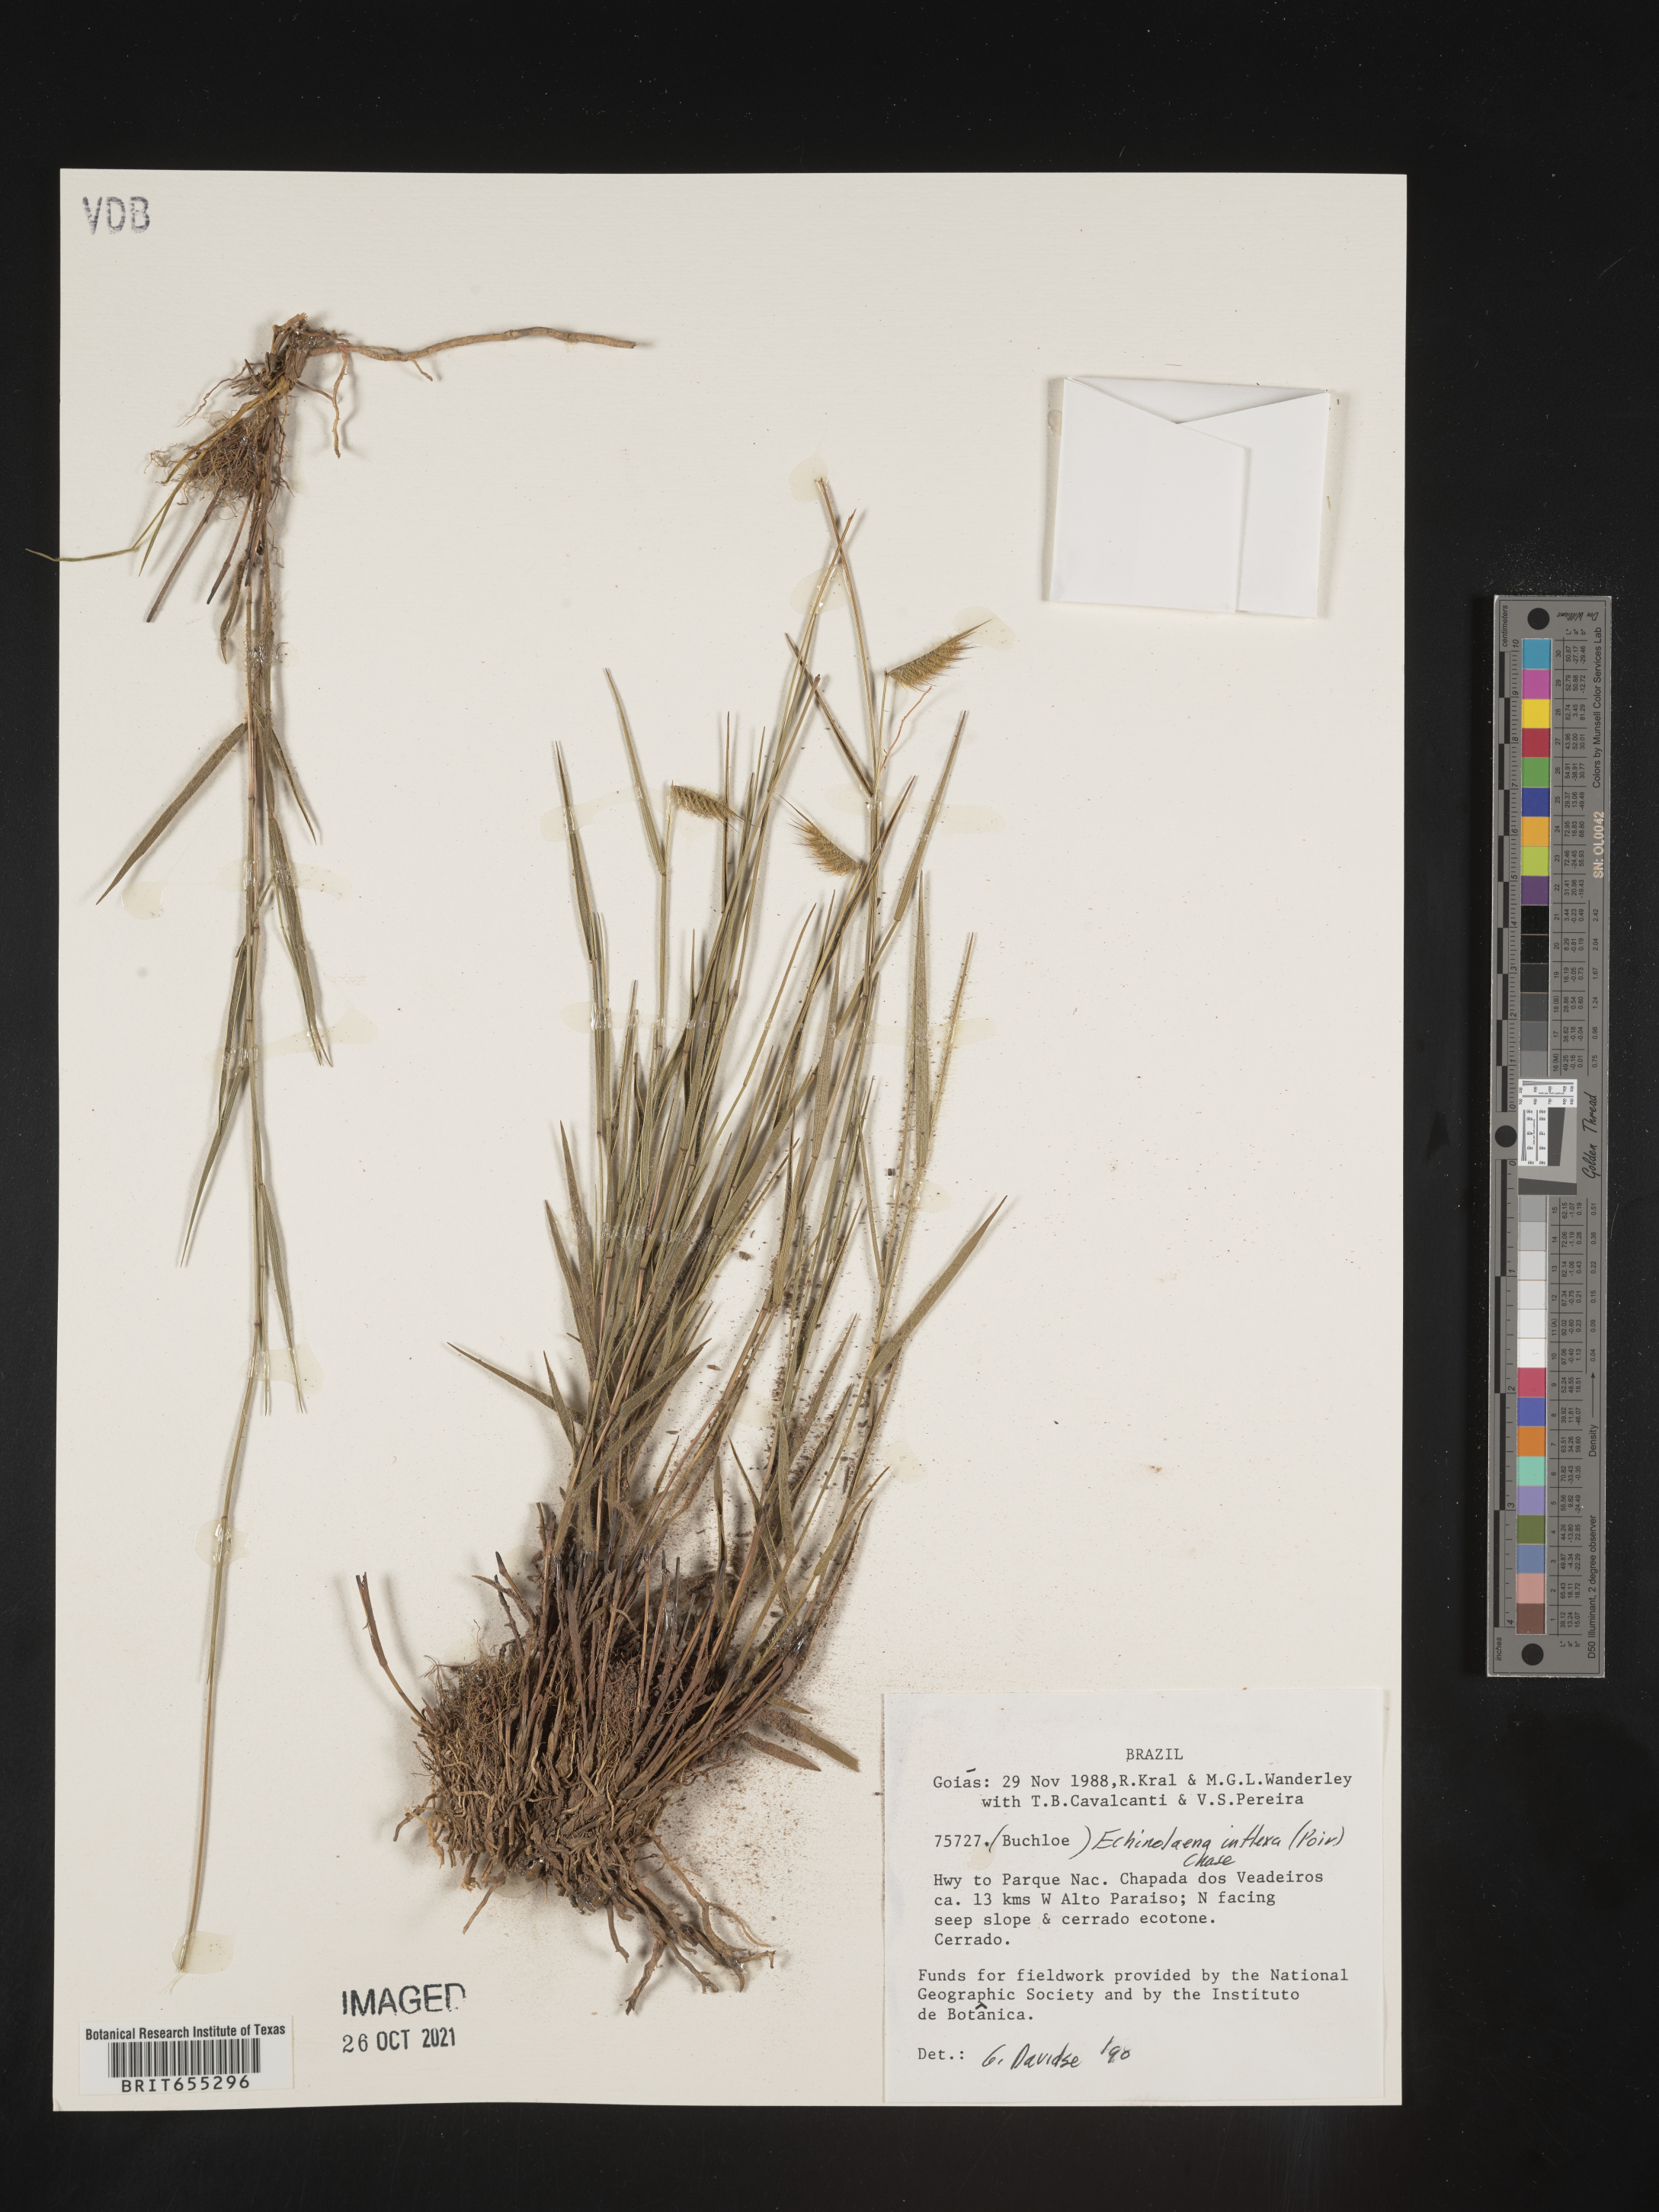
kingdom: Plantae
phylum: Tracheophyta
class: Liliopsida
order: Poales
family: Poaceae
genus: Echinolaena
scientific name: Echinolaena
